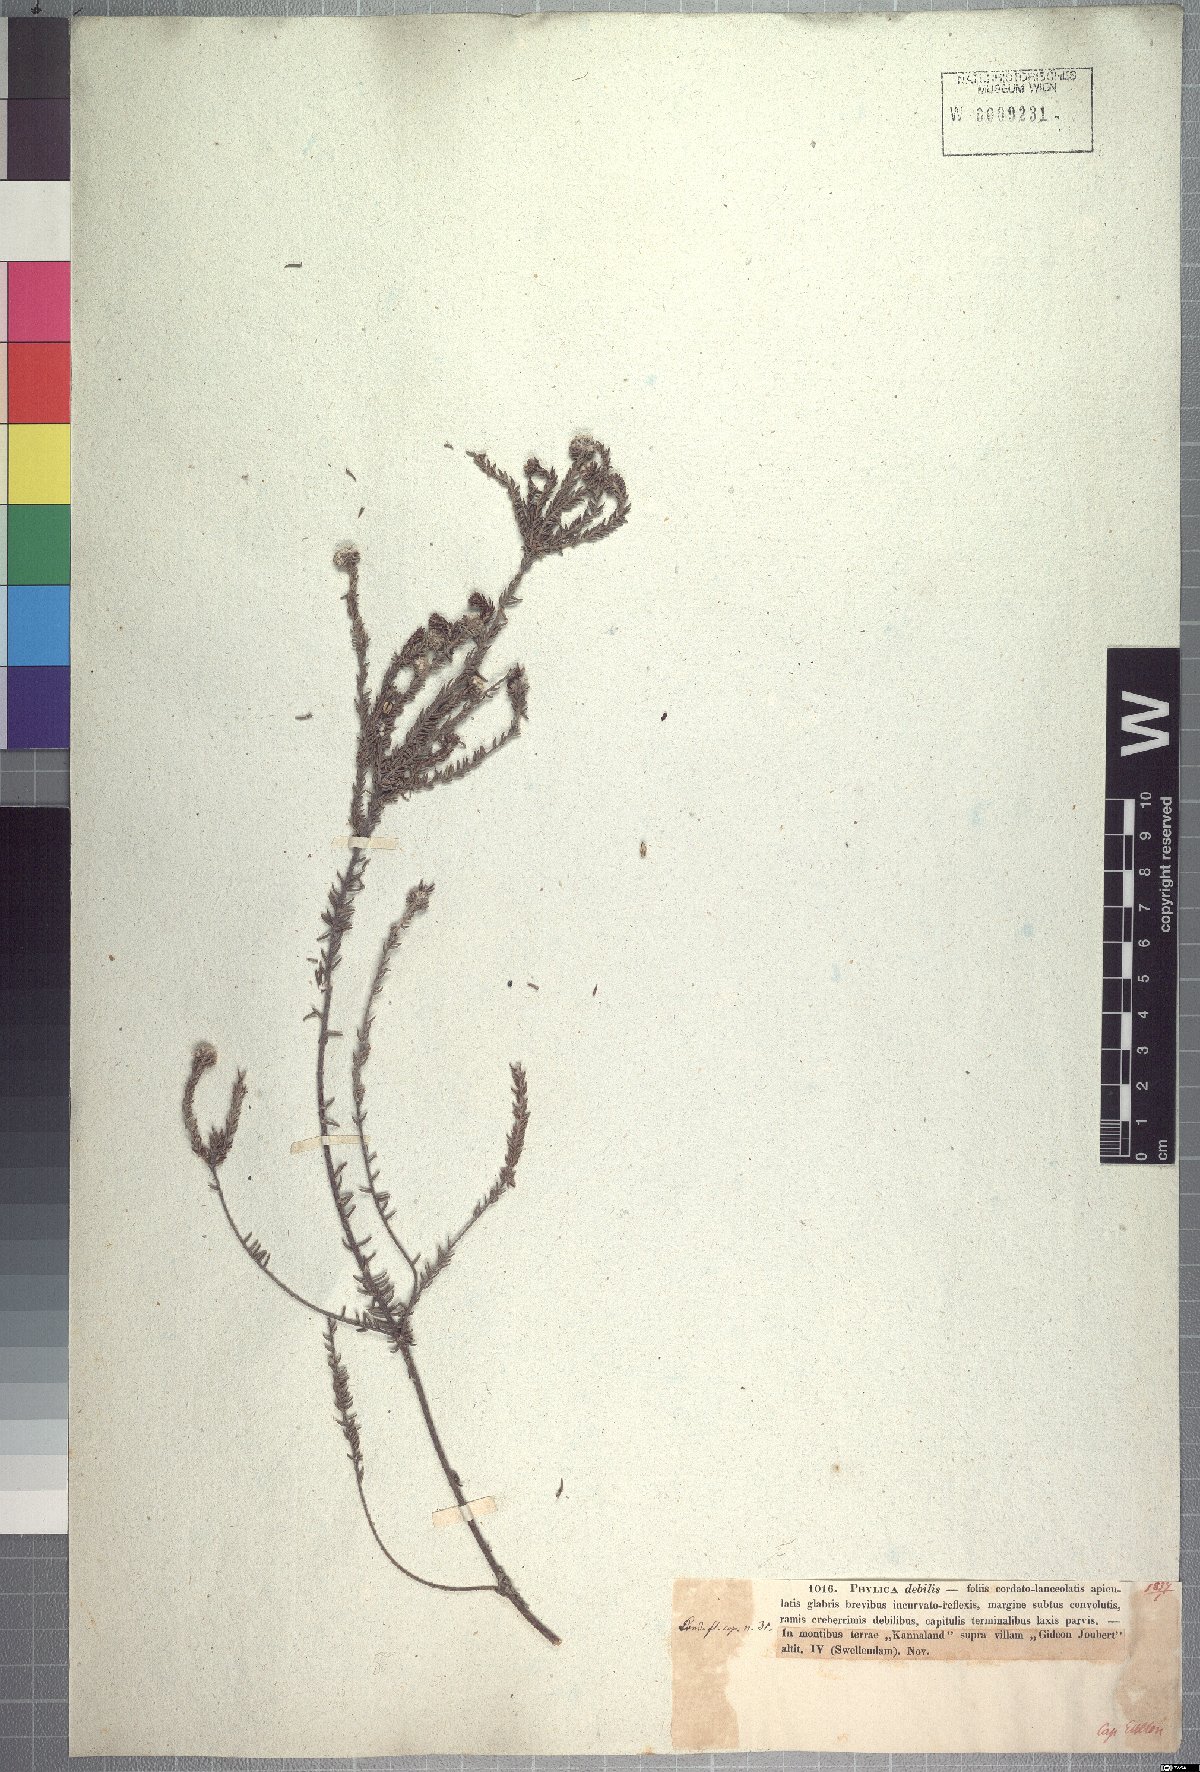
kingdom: Plantae
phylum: Tracheophyta
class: Magnoliopsida
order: Rosales
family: Rhamnaceae
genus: Phylica
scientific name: Phylica debilis
